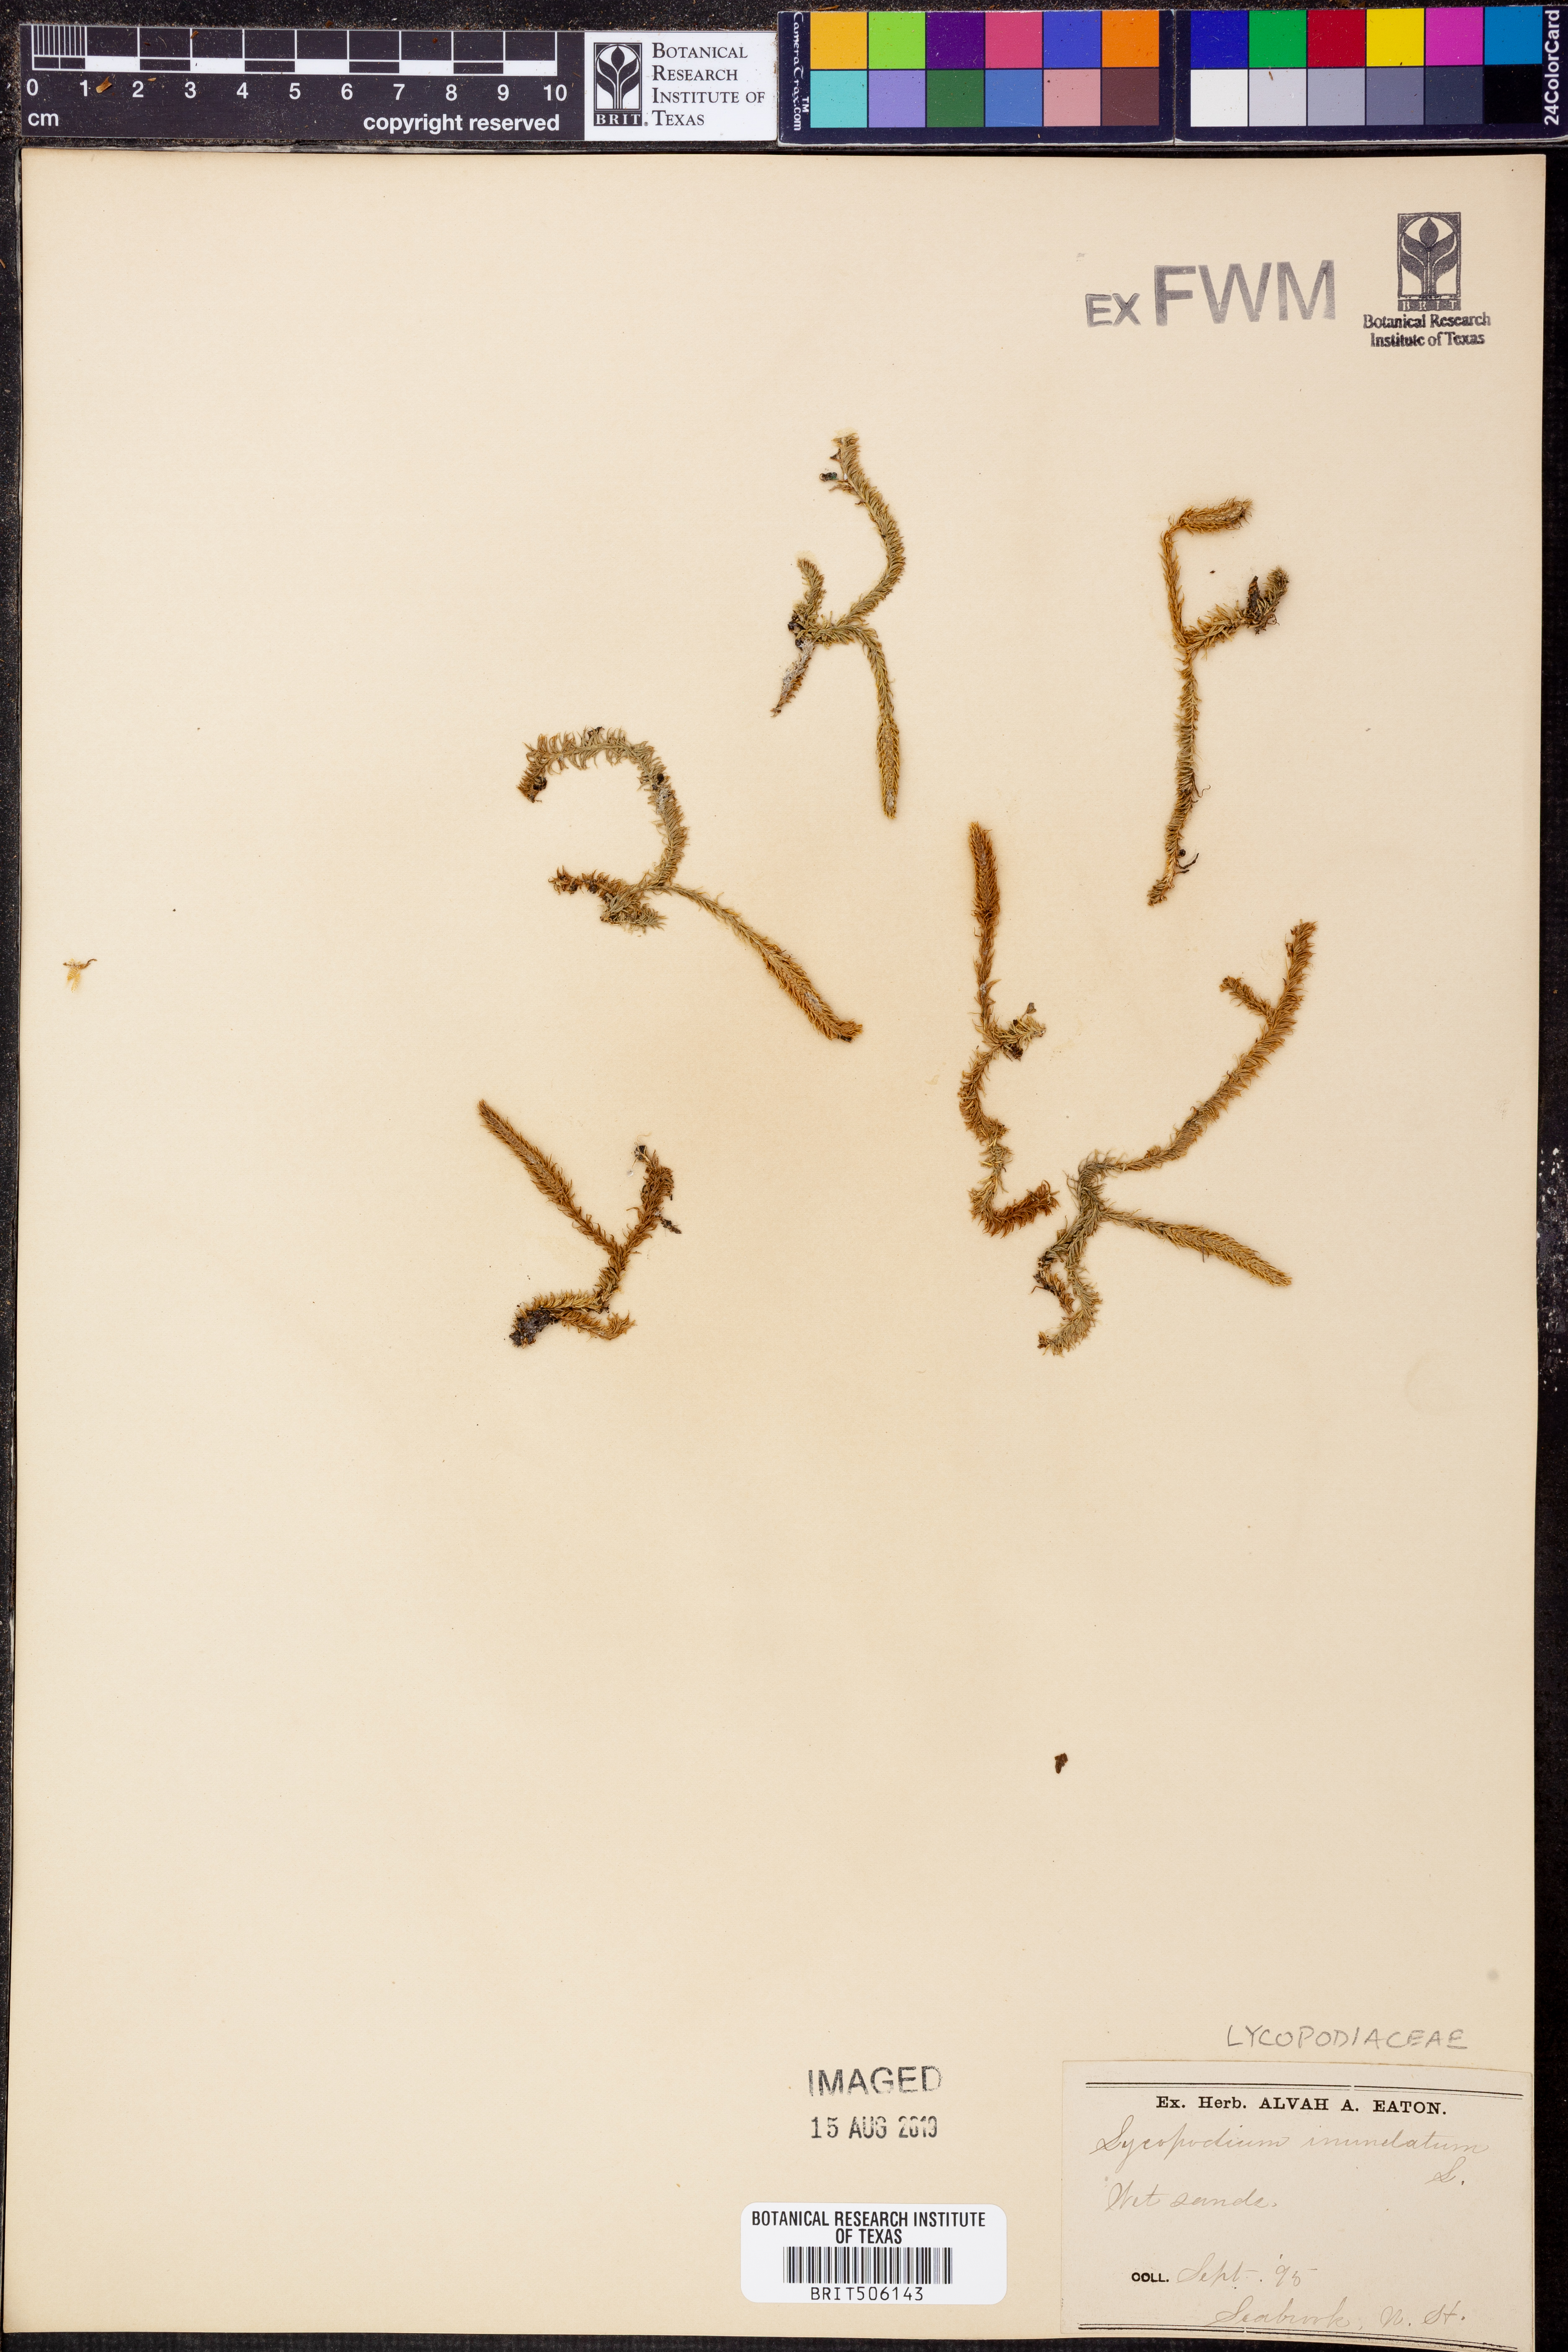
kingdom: Plantae
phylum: Tracheophyta
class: Lycopodiopsida
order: Lycopodiales
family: Lycopodiaceae
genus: Lycopodiella
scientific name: Lycopodiella inundata
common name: Marsh clubmoss
